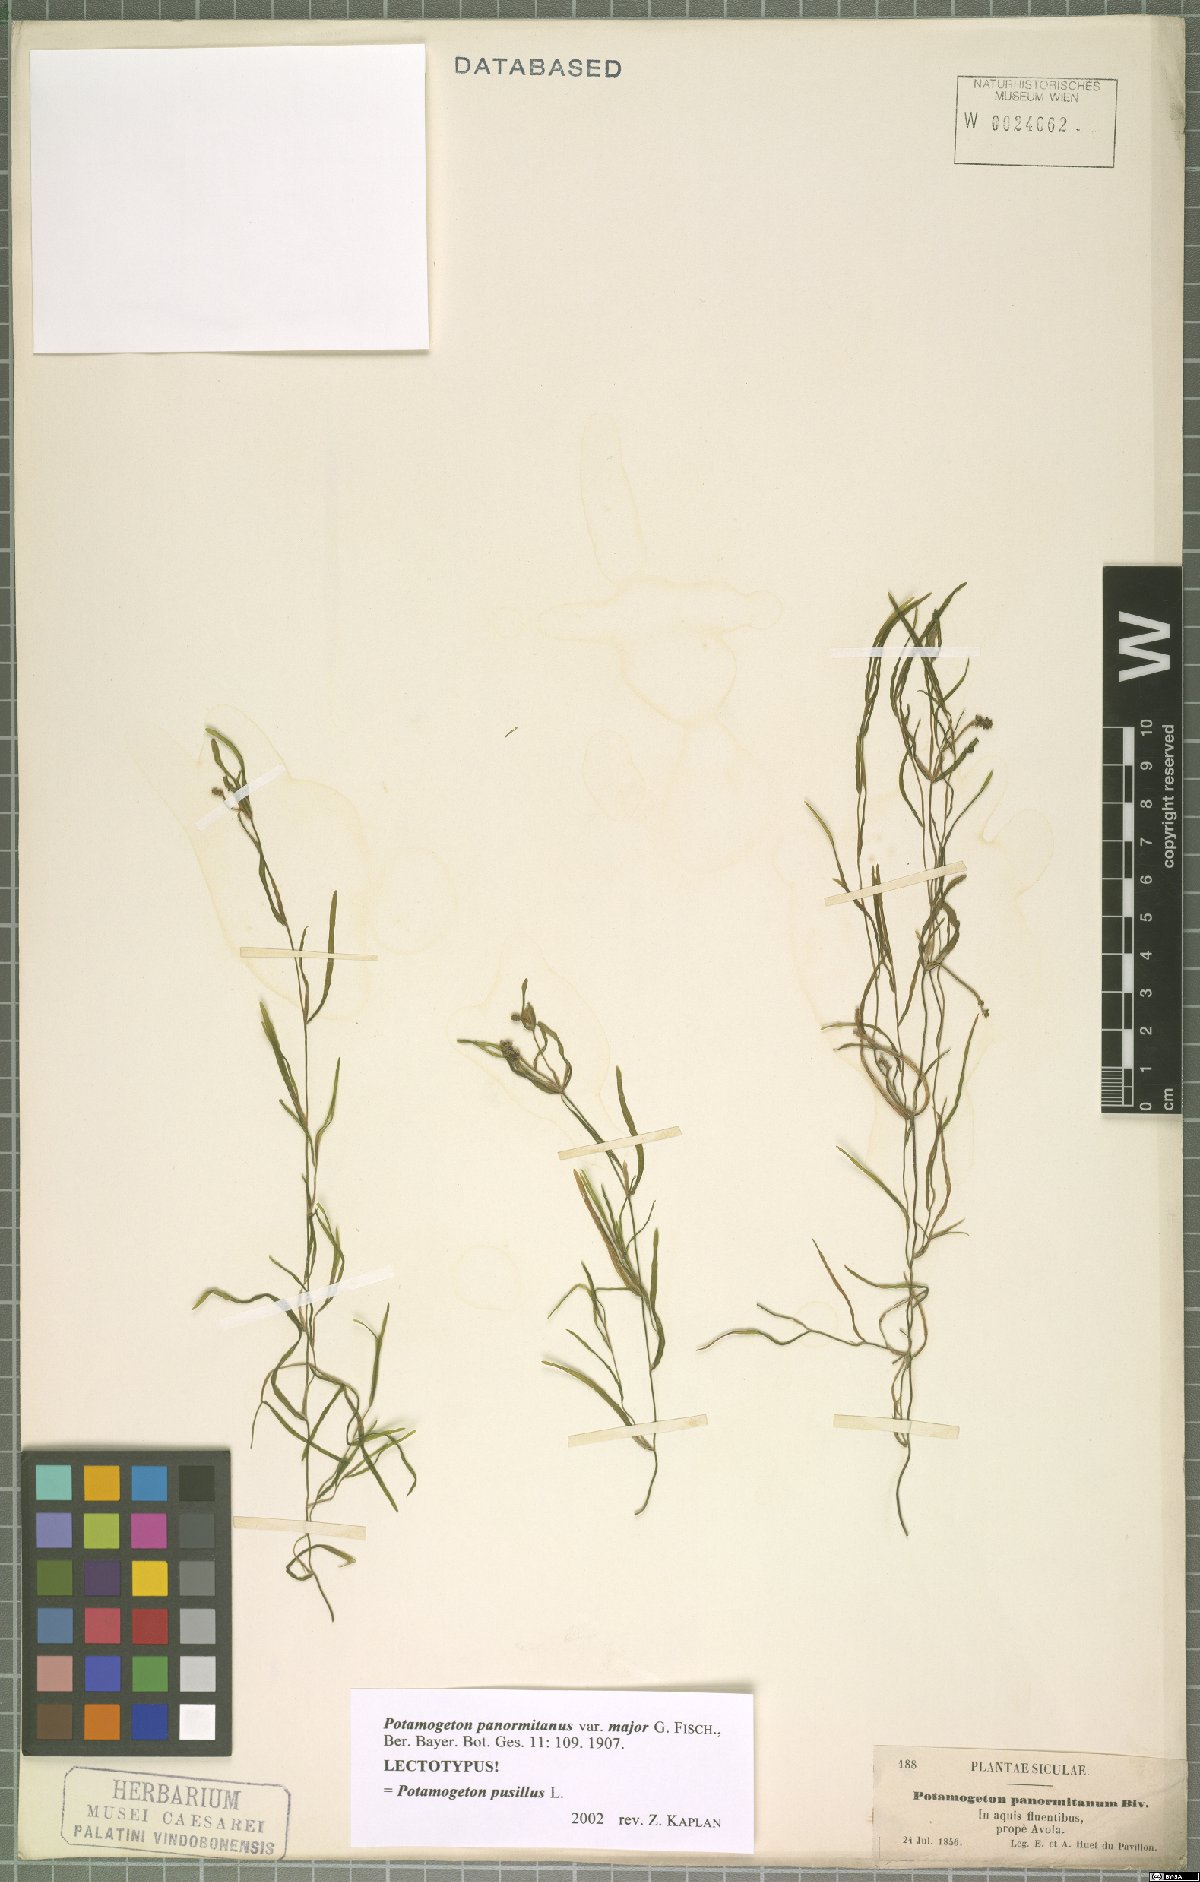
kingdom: Plantae
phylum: Tracheophyta
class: Liliopsida
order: Alismatales
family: Potamogetonaceae
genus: Potamogeton
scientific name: Potamogeton pusillus
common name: Lesser pondweed
